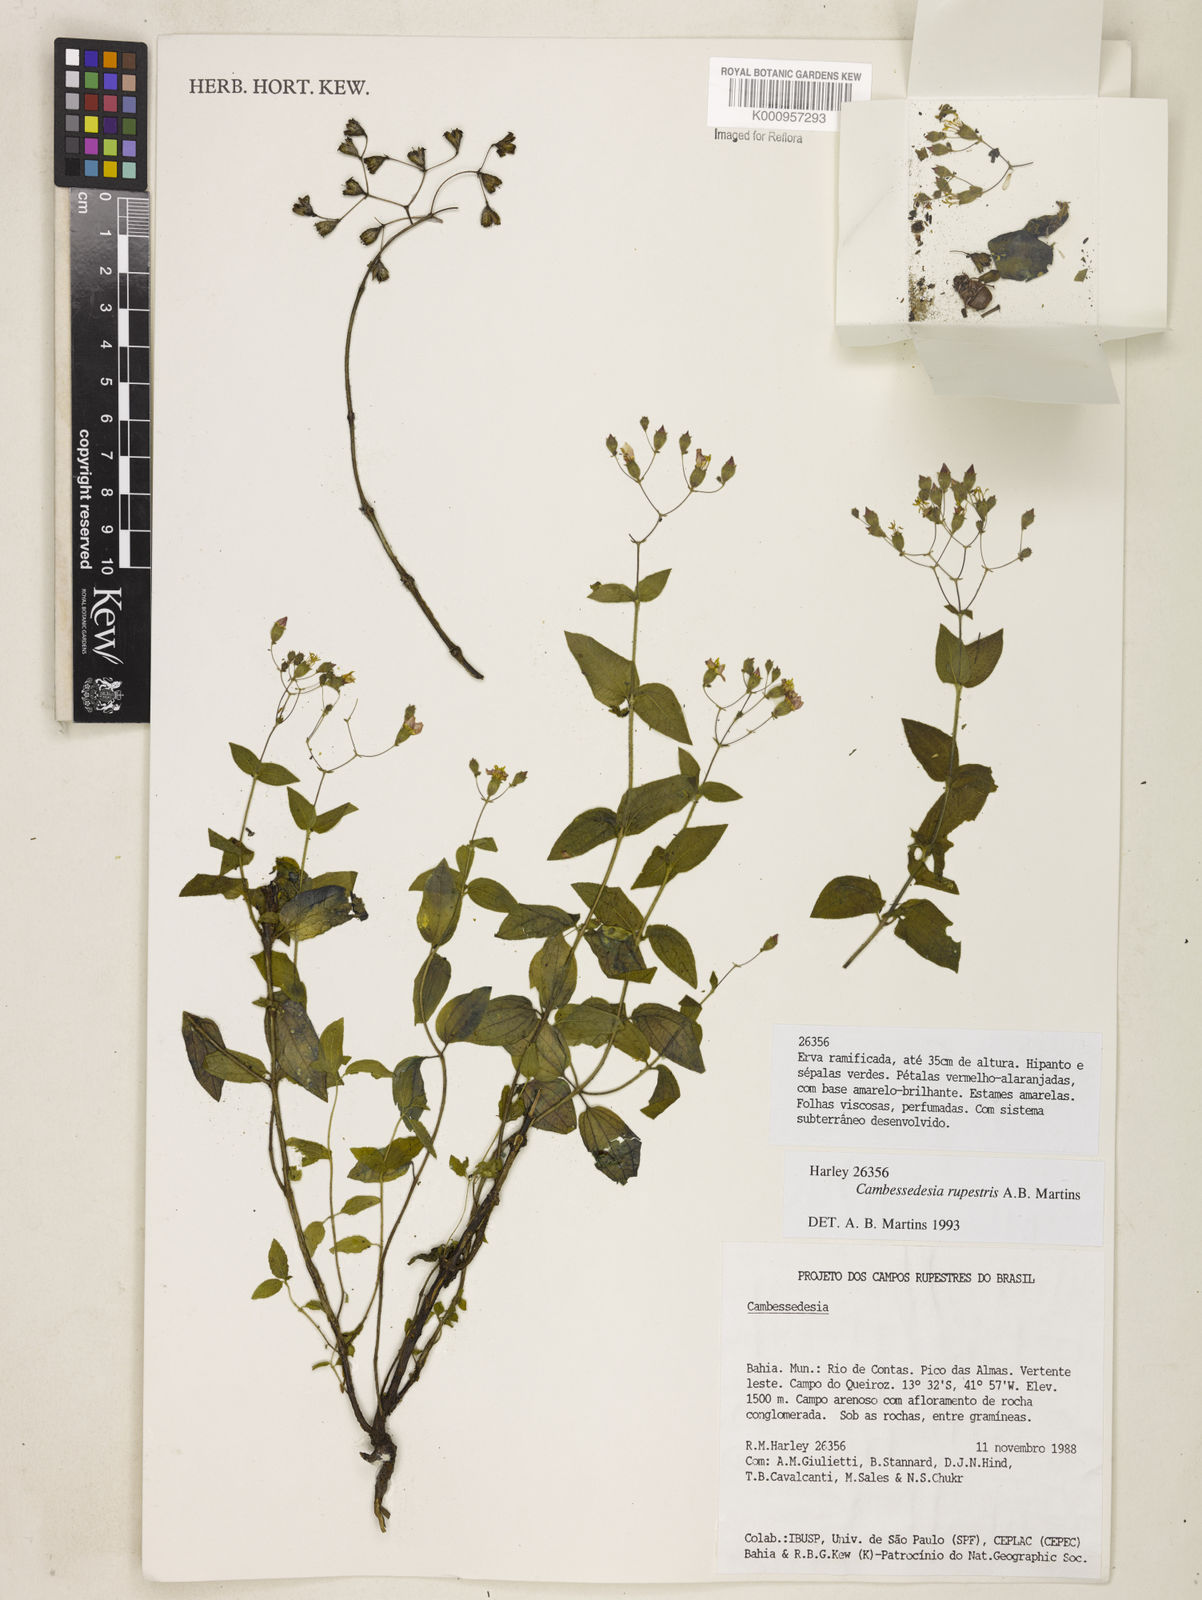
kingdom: Plantae
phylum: Tracheophyta
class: Magnoliopsida
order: Myrtales
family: Melastomataceae
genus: Cambessedesia
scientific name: Cambessedesia rupestris
